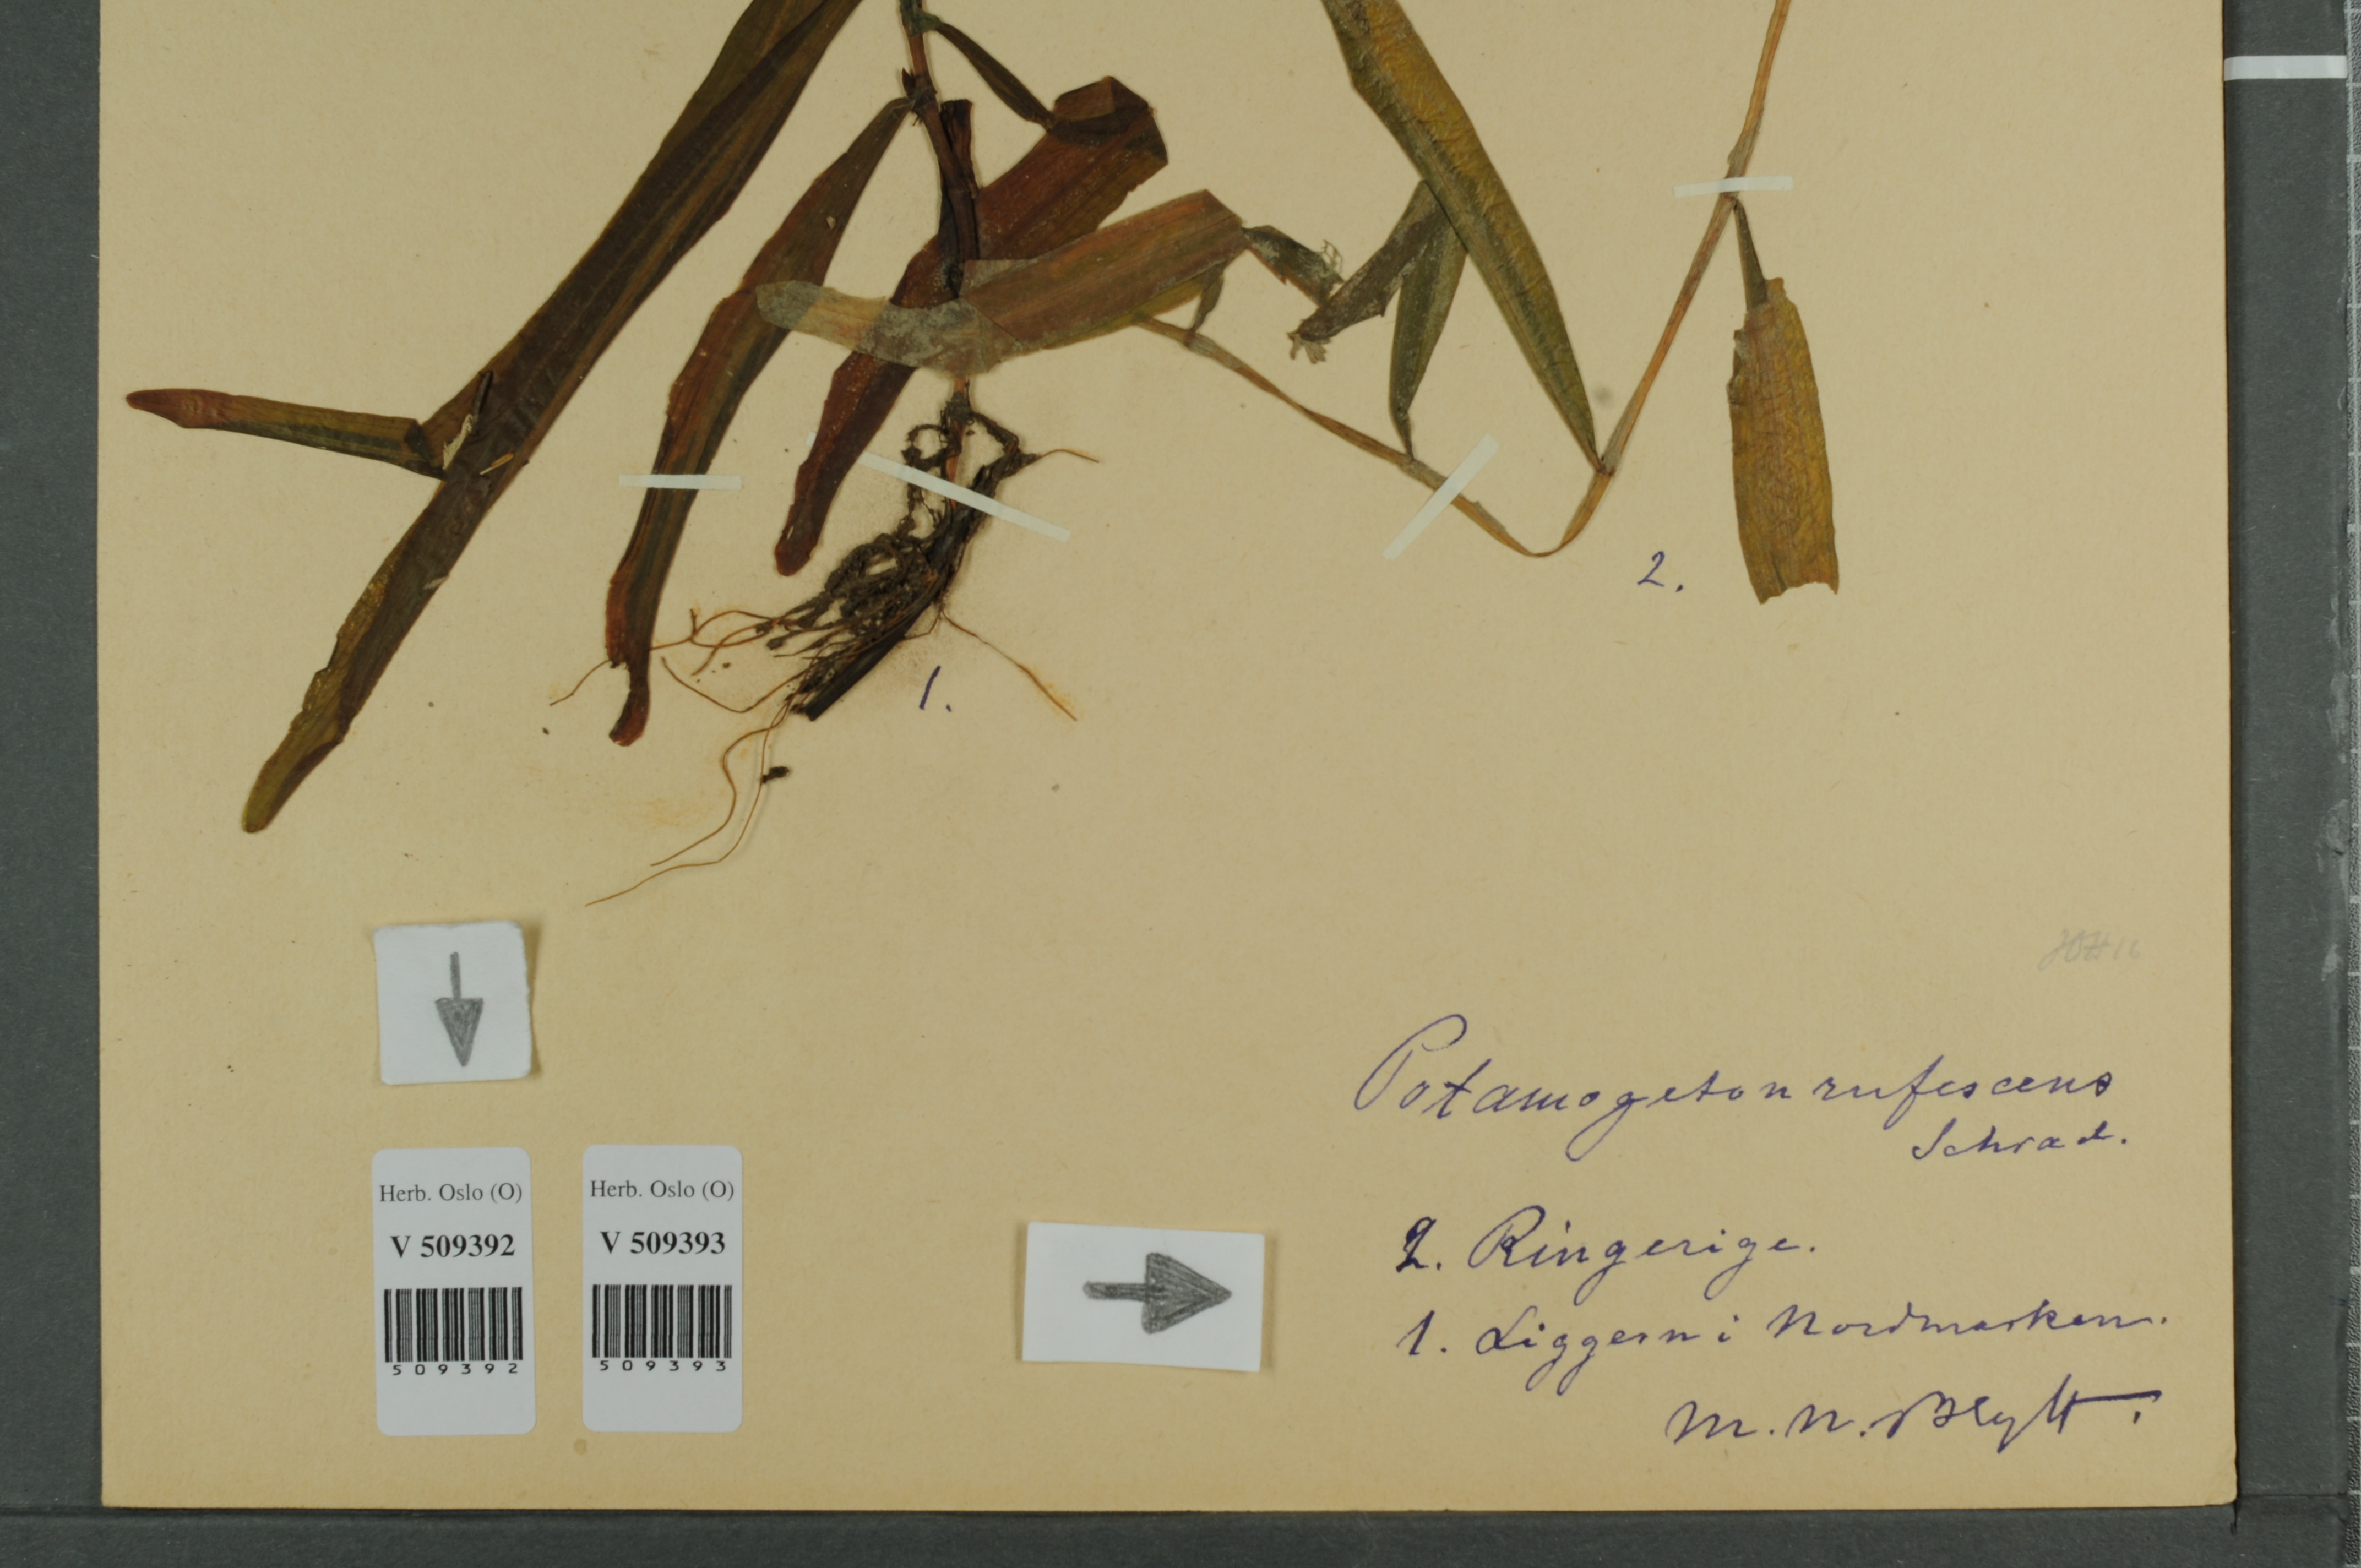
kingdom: Plantae
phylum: Tracheophyta
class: Liliopsida
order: Alismatales
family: Potamogetonaceae
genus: Potamogeton
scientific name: Potamogeton alpinus
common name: Red pondweed
